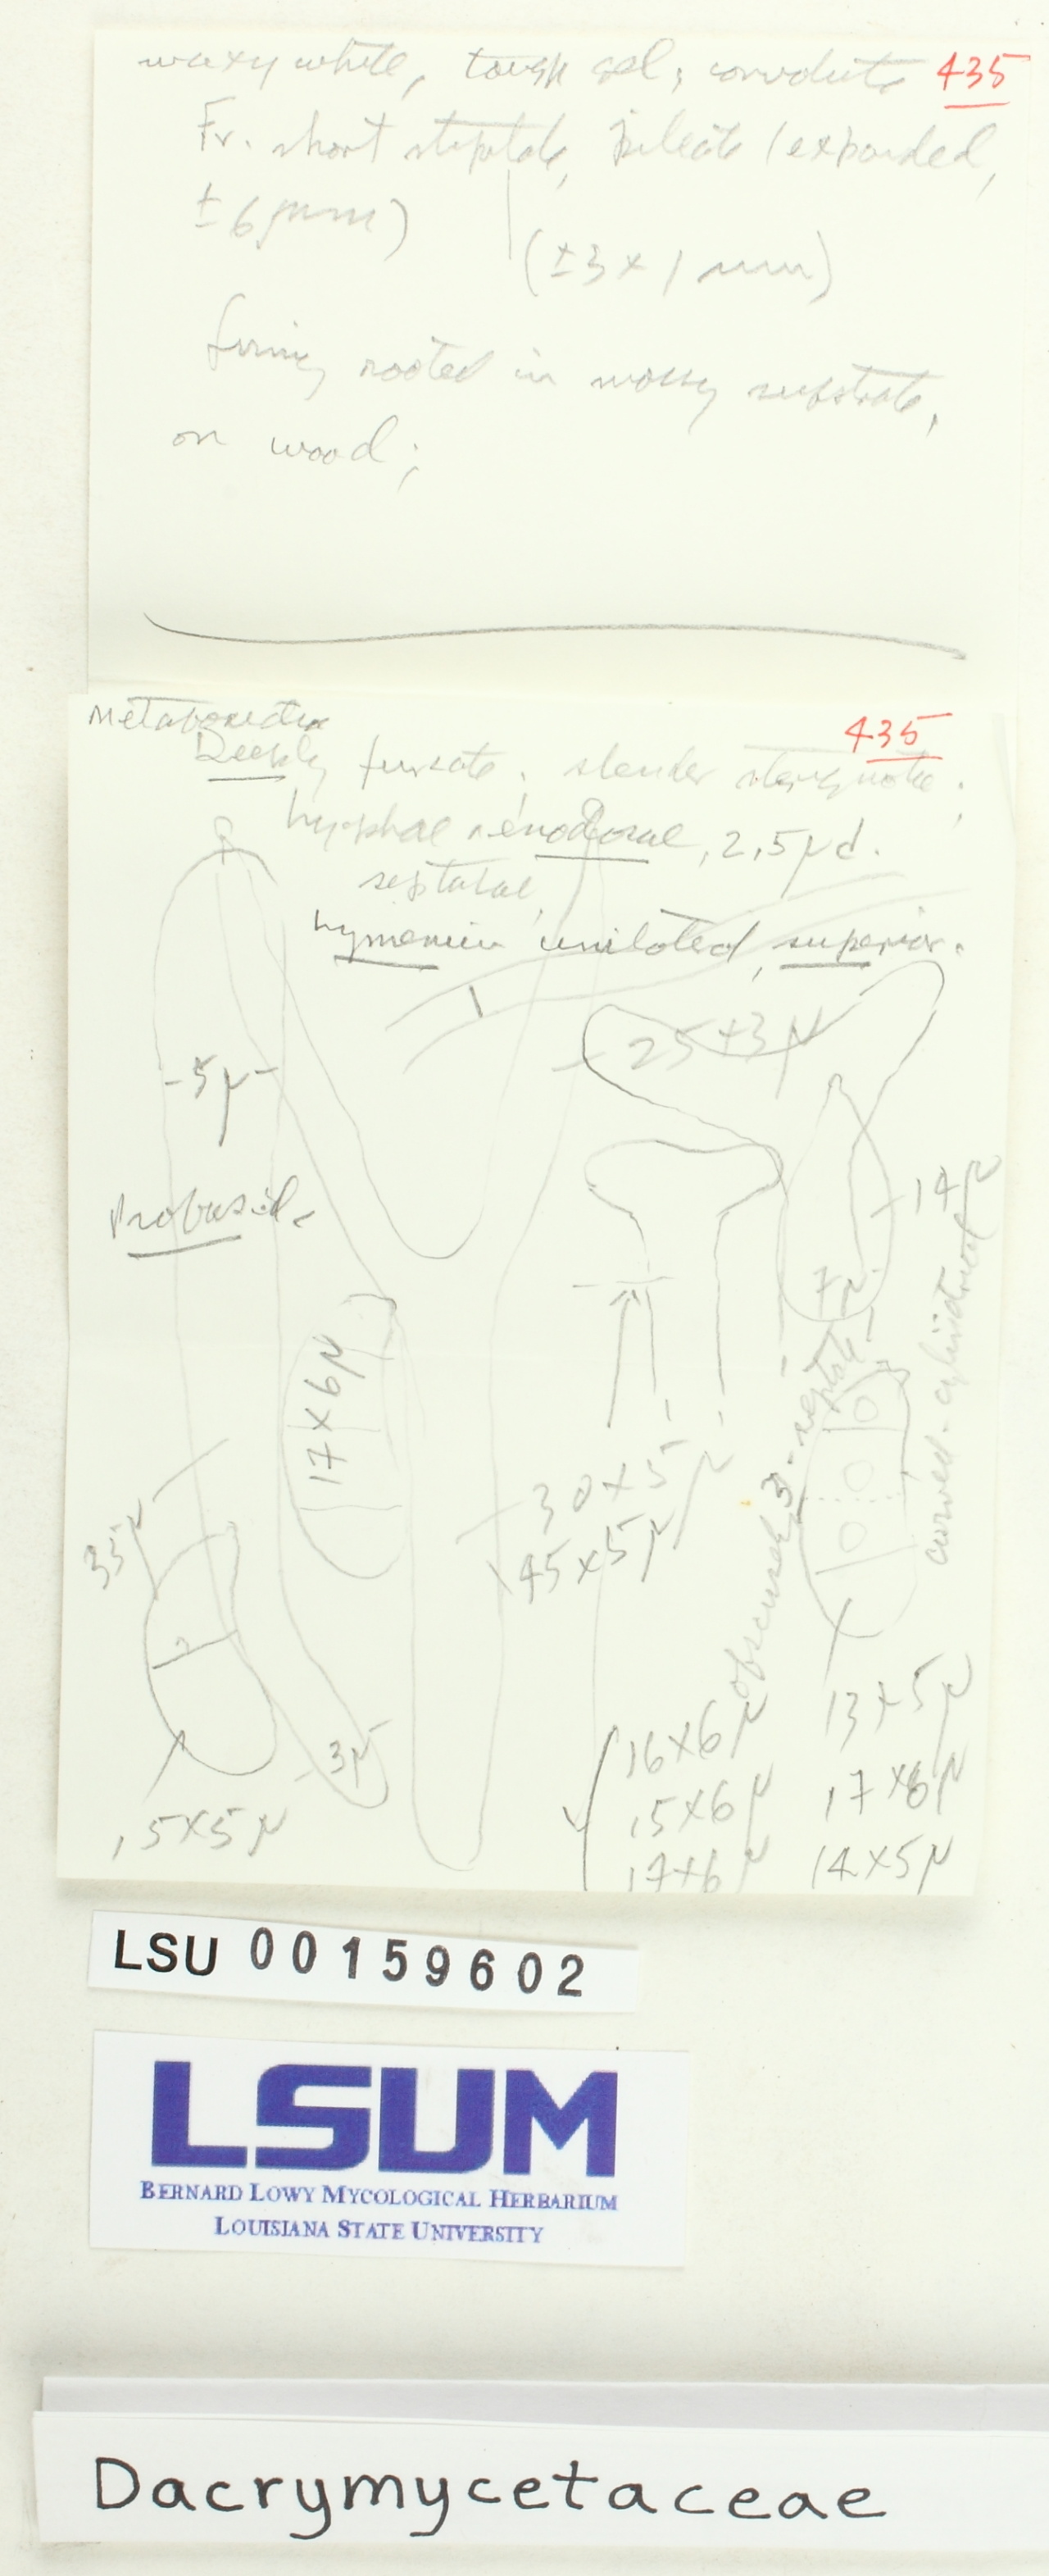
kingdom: Fungi
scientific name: Fungi
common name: Fungi
